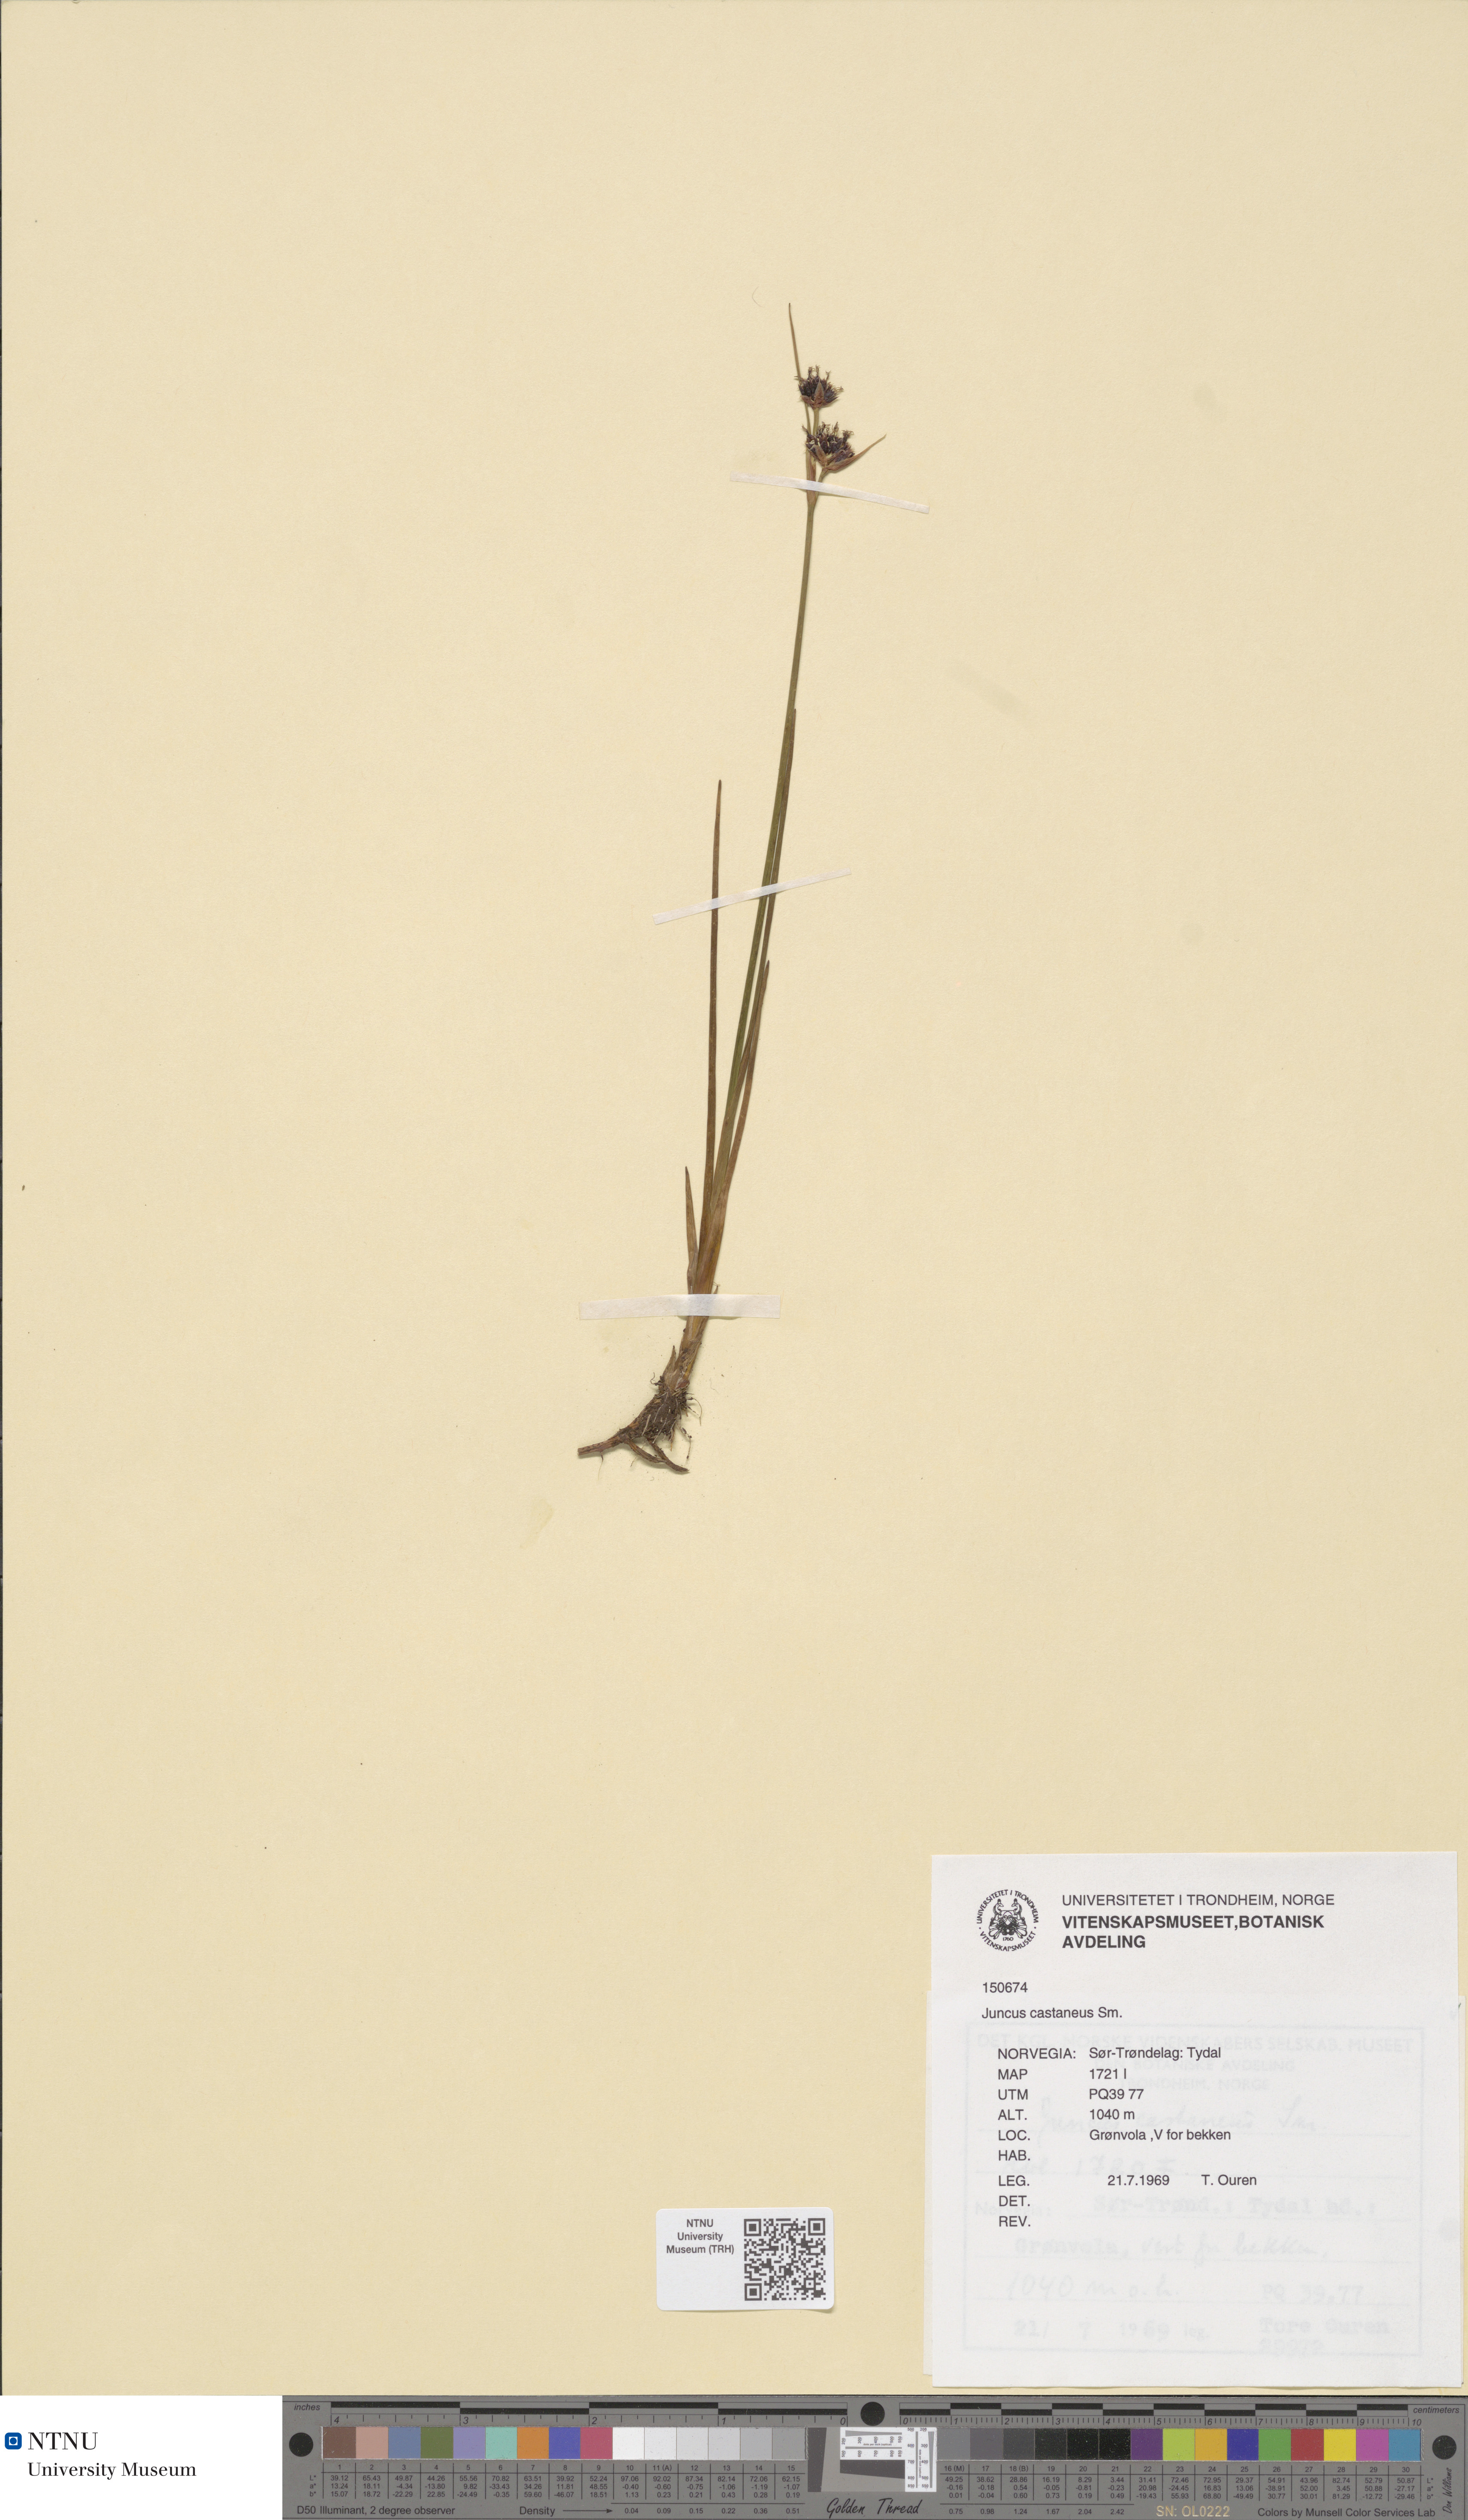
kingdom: Plantae
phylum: Tracheophyta
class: Liliopsida
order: Poales
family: Juncaceae
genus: Juncus
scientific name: Juncus castaneus
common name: Chestnut rush
